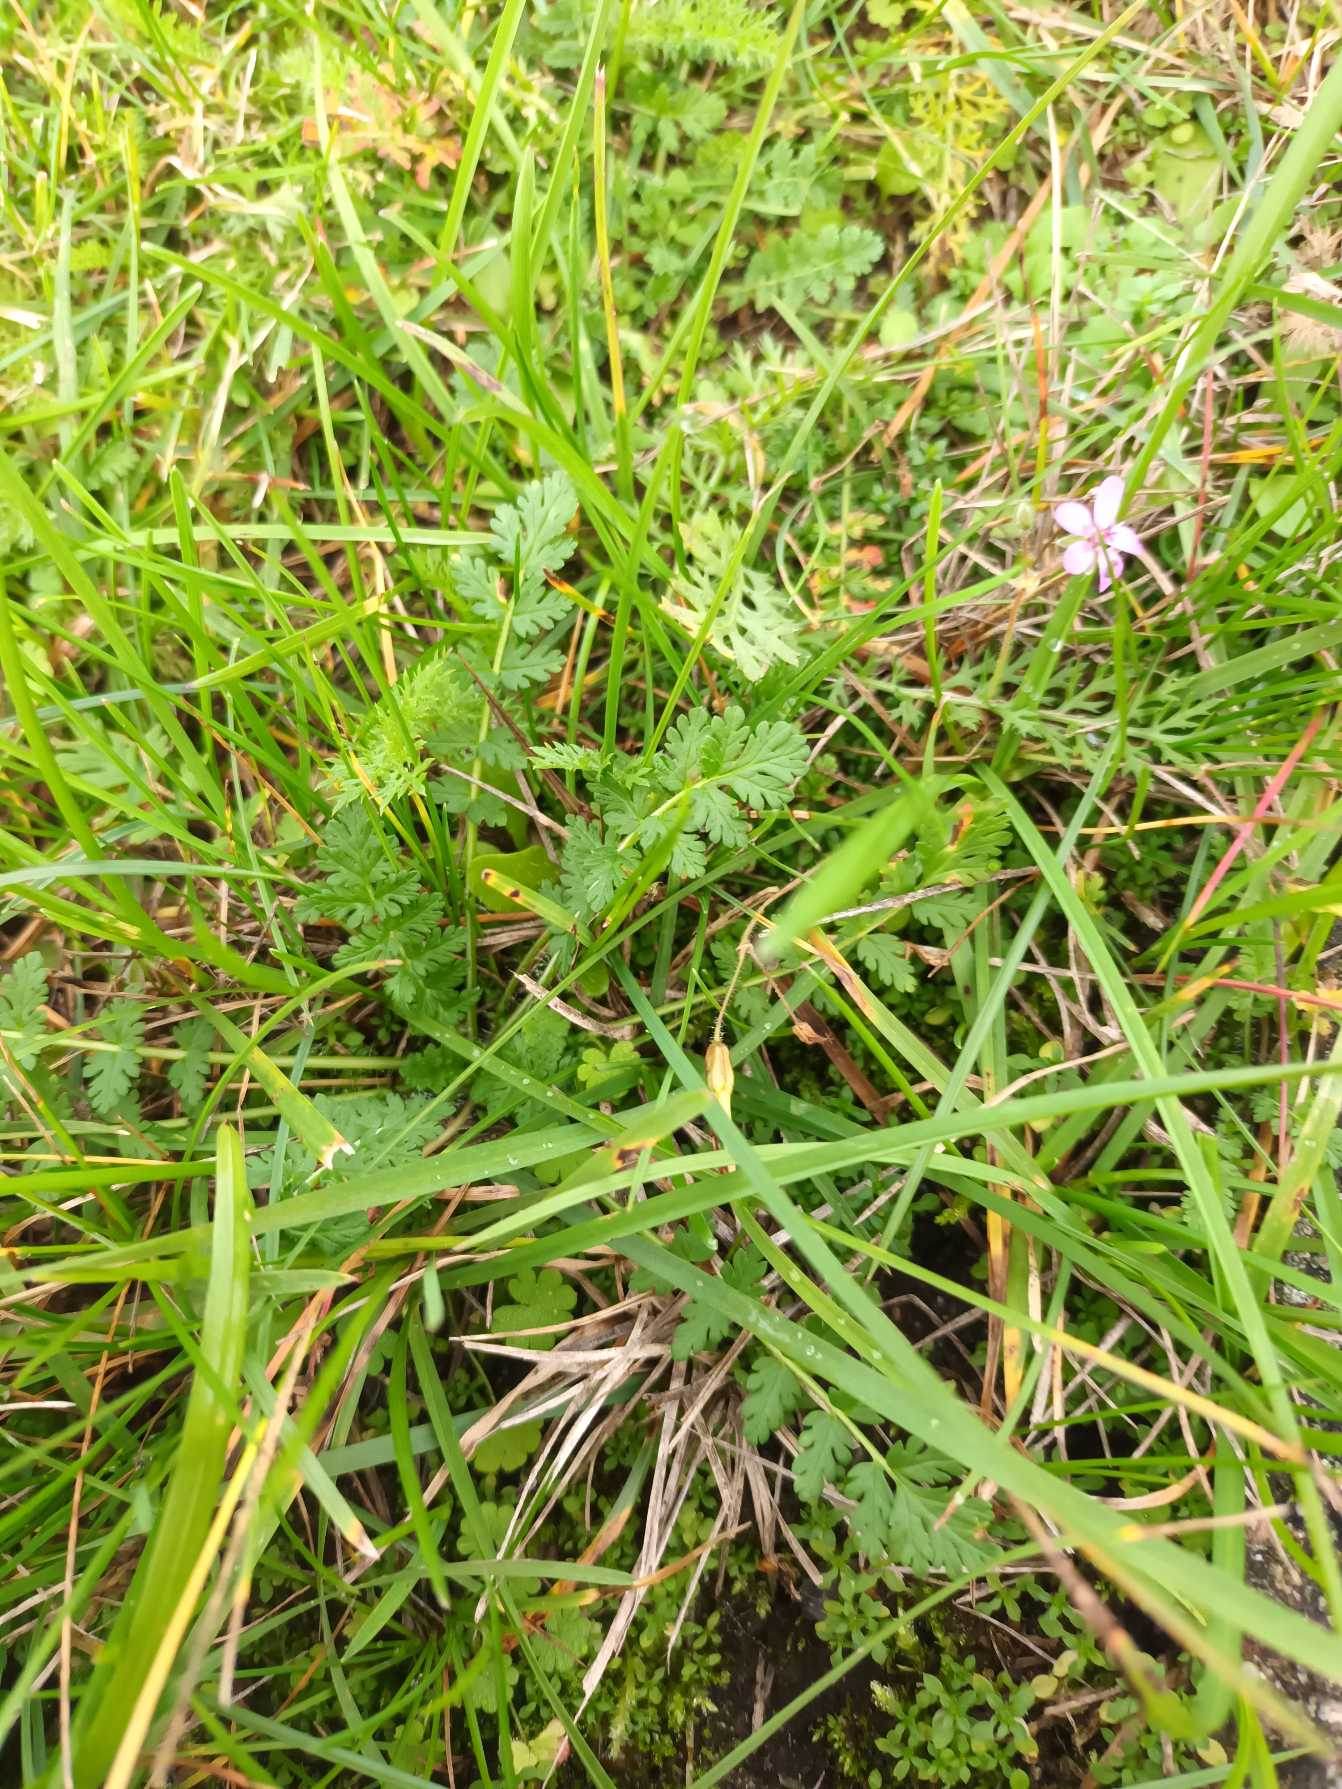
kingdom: Plantae
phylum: Tracheophyta
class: Magnoliopsida
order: Geraniales
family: Geraniaceae
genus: Erodium
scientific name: Erodium cicutarium
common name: Hejrenæb
